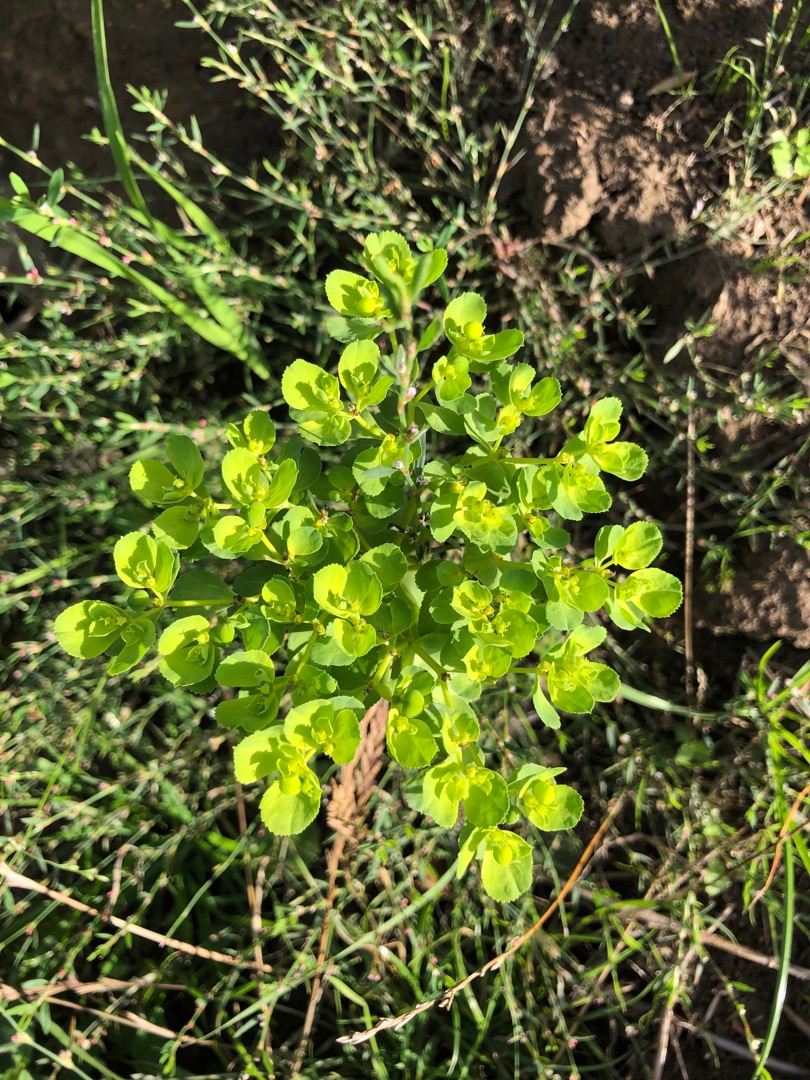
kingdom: Plantae
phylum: Tracheophyta
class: Magnoliopsida
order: Malpighiales
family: Euphorbiaceae
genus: Euphorbia
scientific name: Euphorbia helioscopia
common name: Skærm-vortemælk
